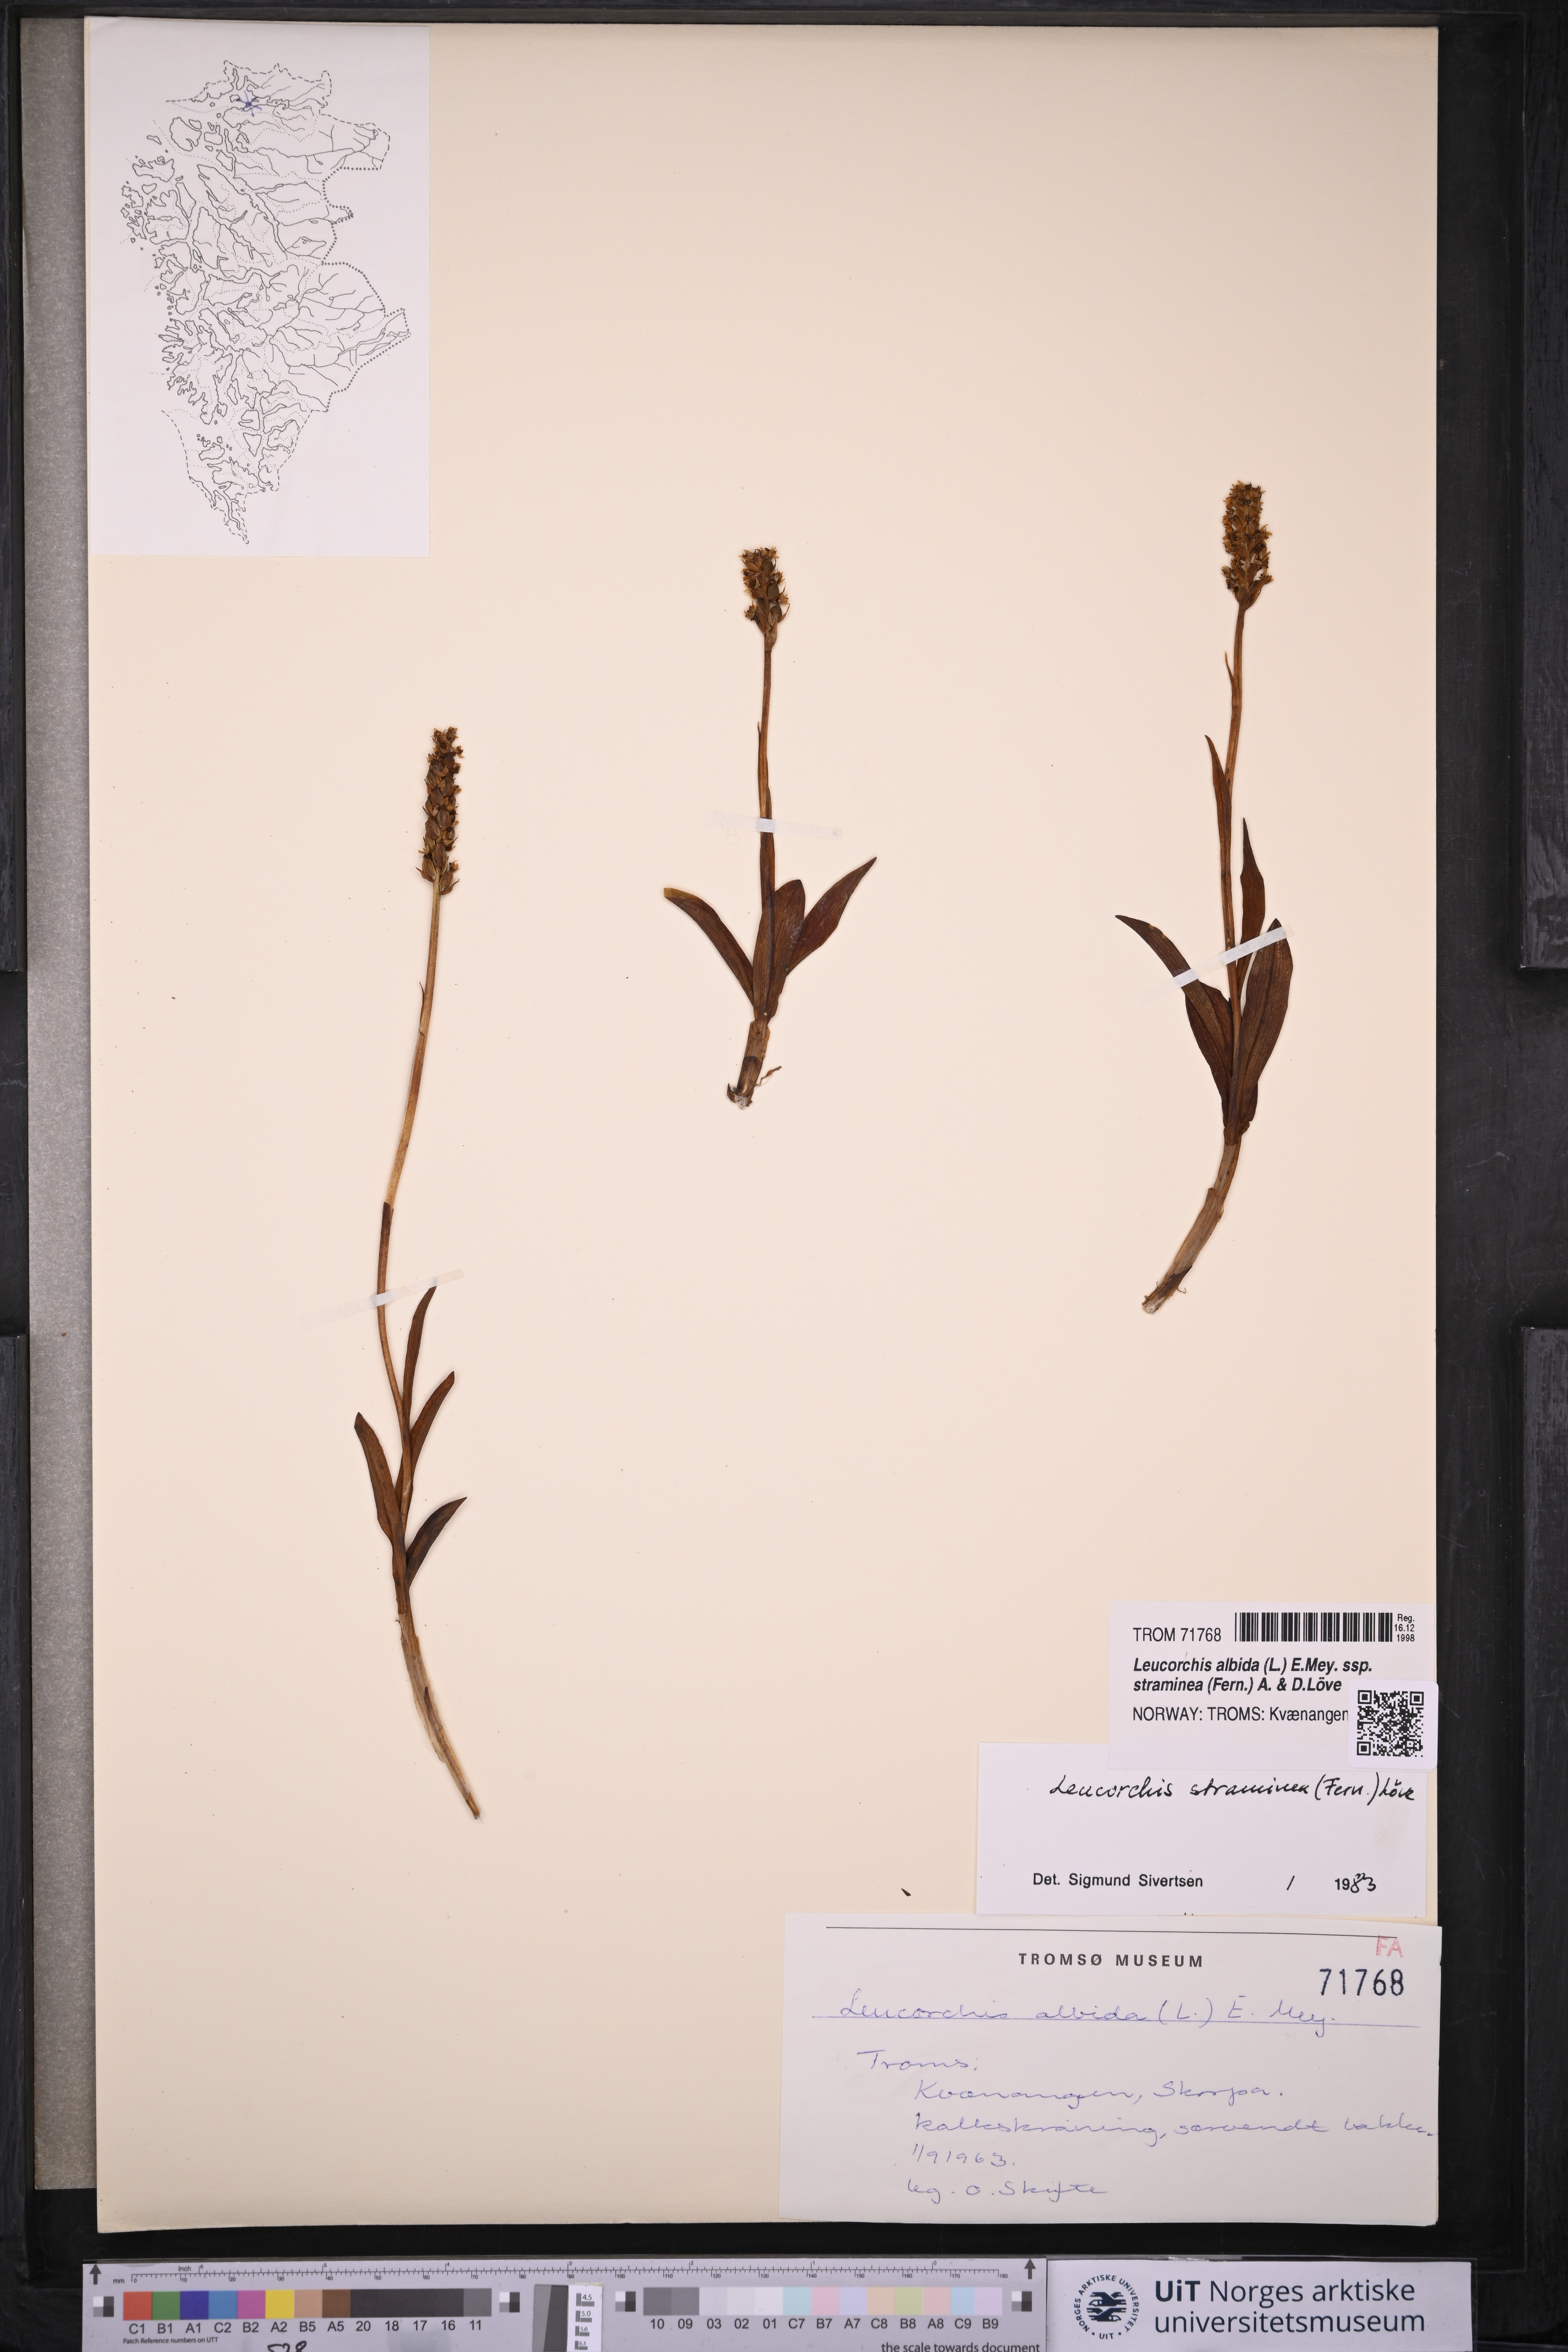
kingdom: Plantae
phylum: Tracheophyta
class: Liliopsida
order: Asparagales
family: Orchidaceae
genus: Pseudorchis
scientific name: Pseudorchis straminea
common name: Vanilla-scented bog orchid
